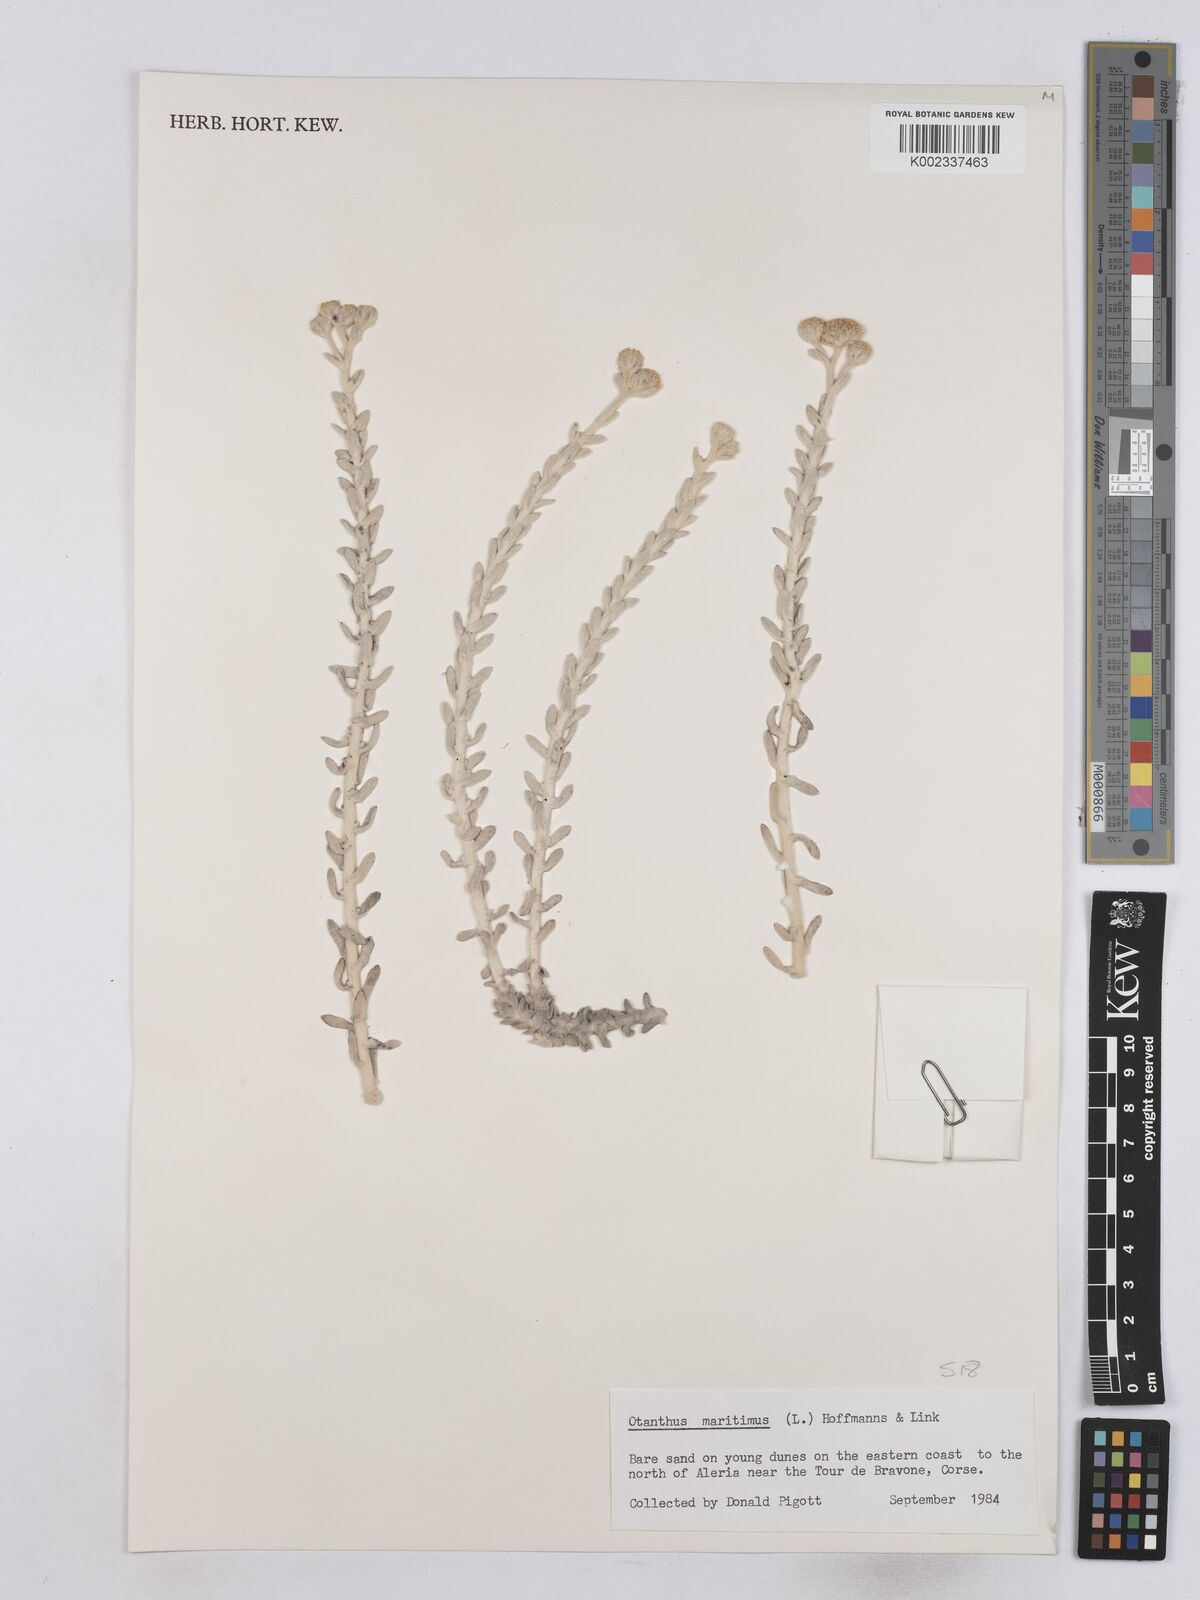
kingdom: Plantae
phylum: Tracheophyta
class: Magnoliopsida
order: Asterales
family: Asteraceae
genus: Achillea
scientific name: Achillea maritima
